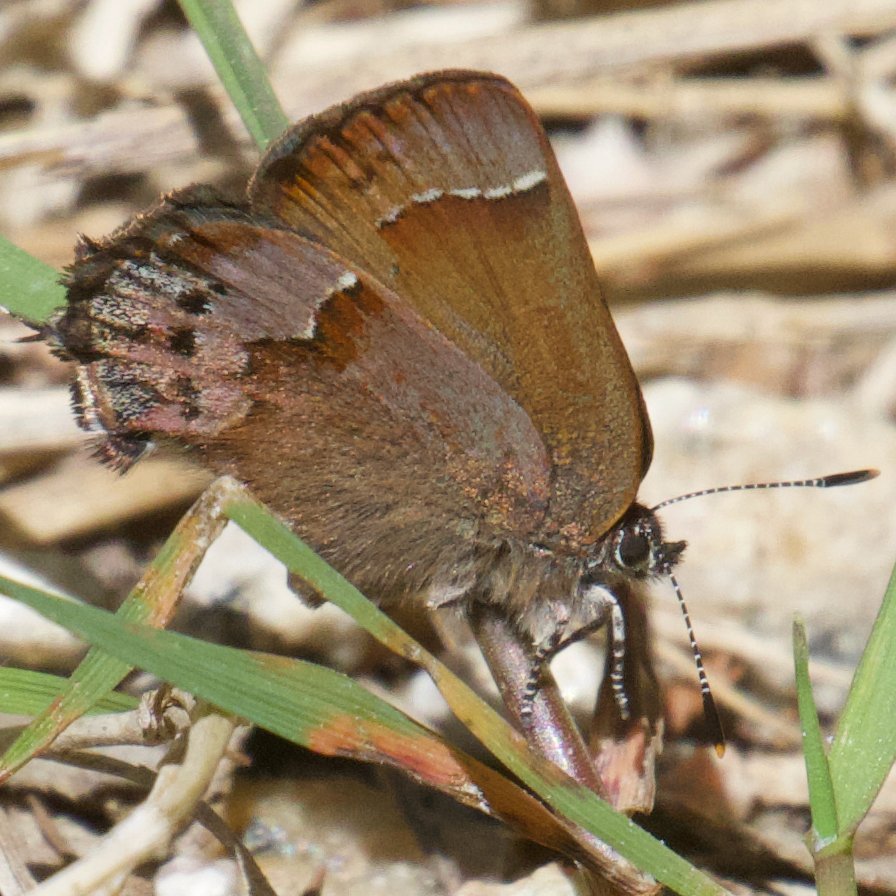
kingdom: Animalia
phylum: Arthropoda
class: Insecta
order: Lepidoptera
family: Lycaenidae
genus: Mitoura
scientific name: Mitoura gryneus
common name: Juniper Hairstreak
